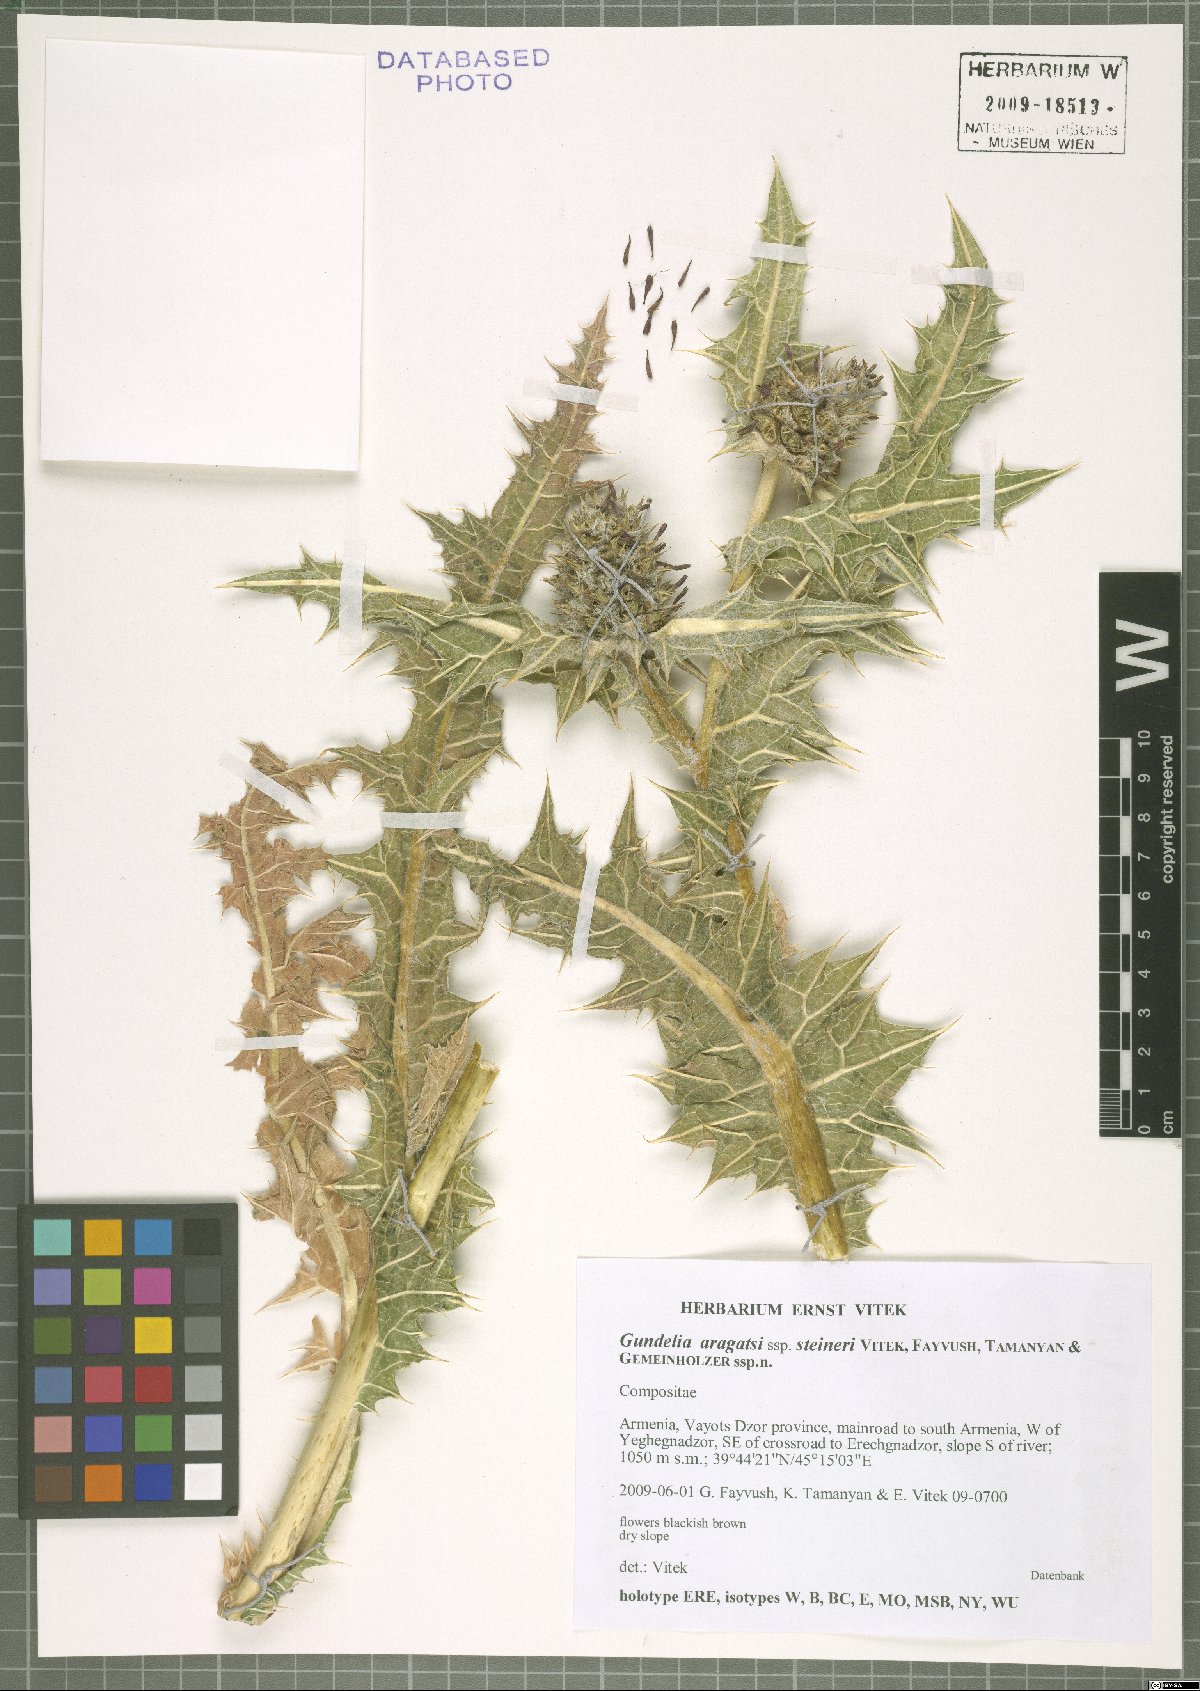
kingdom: Plantae
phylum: Tracheophyta
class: Magnoliopsida
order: Asterales
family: Asteraceae
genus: Gundelia
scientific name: Gundelia aragatsi
